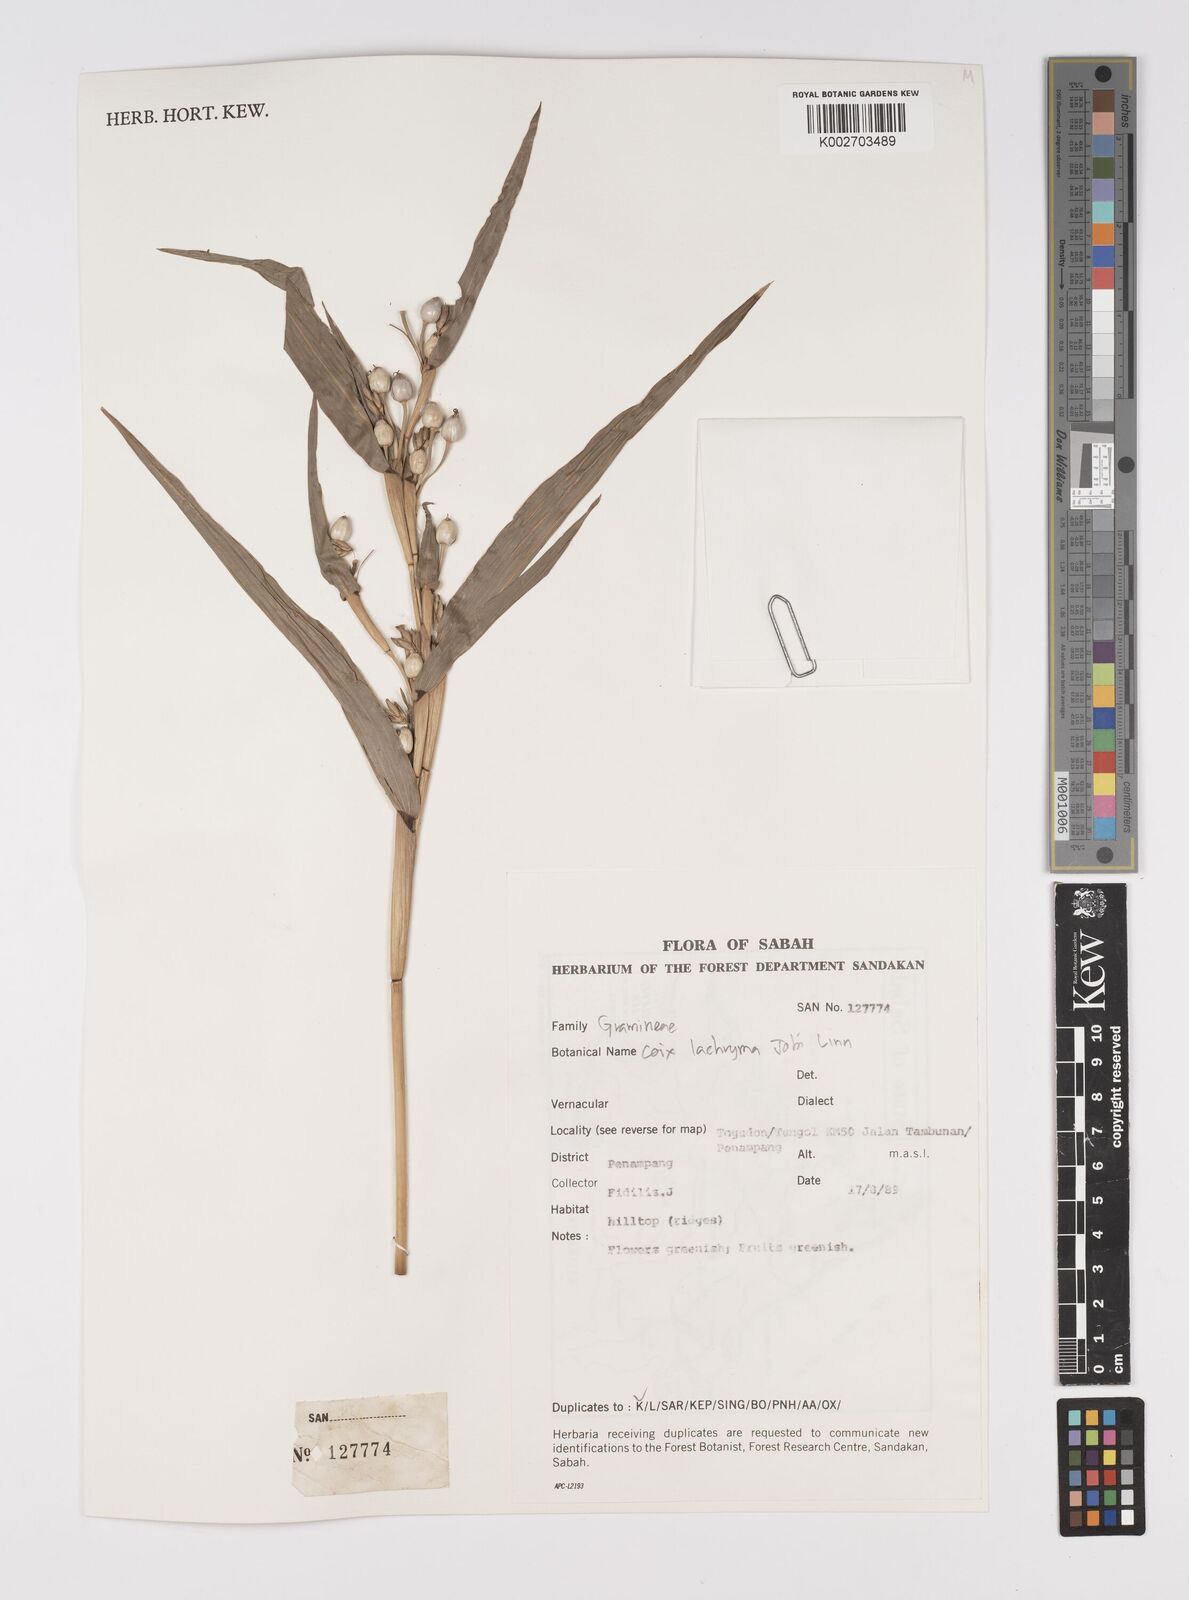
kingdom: Plantae
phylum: Tracheophyta
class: Liliopsida
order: Poales
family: Poaceae
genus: Coix
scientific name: Coix lacryma-jobi
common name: Job's tears
